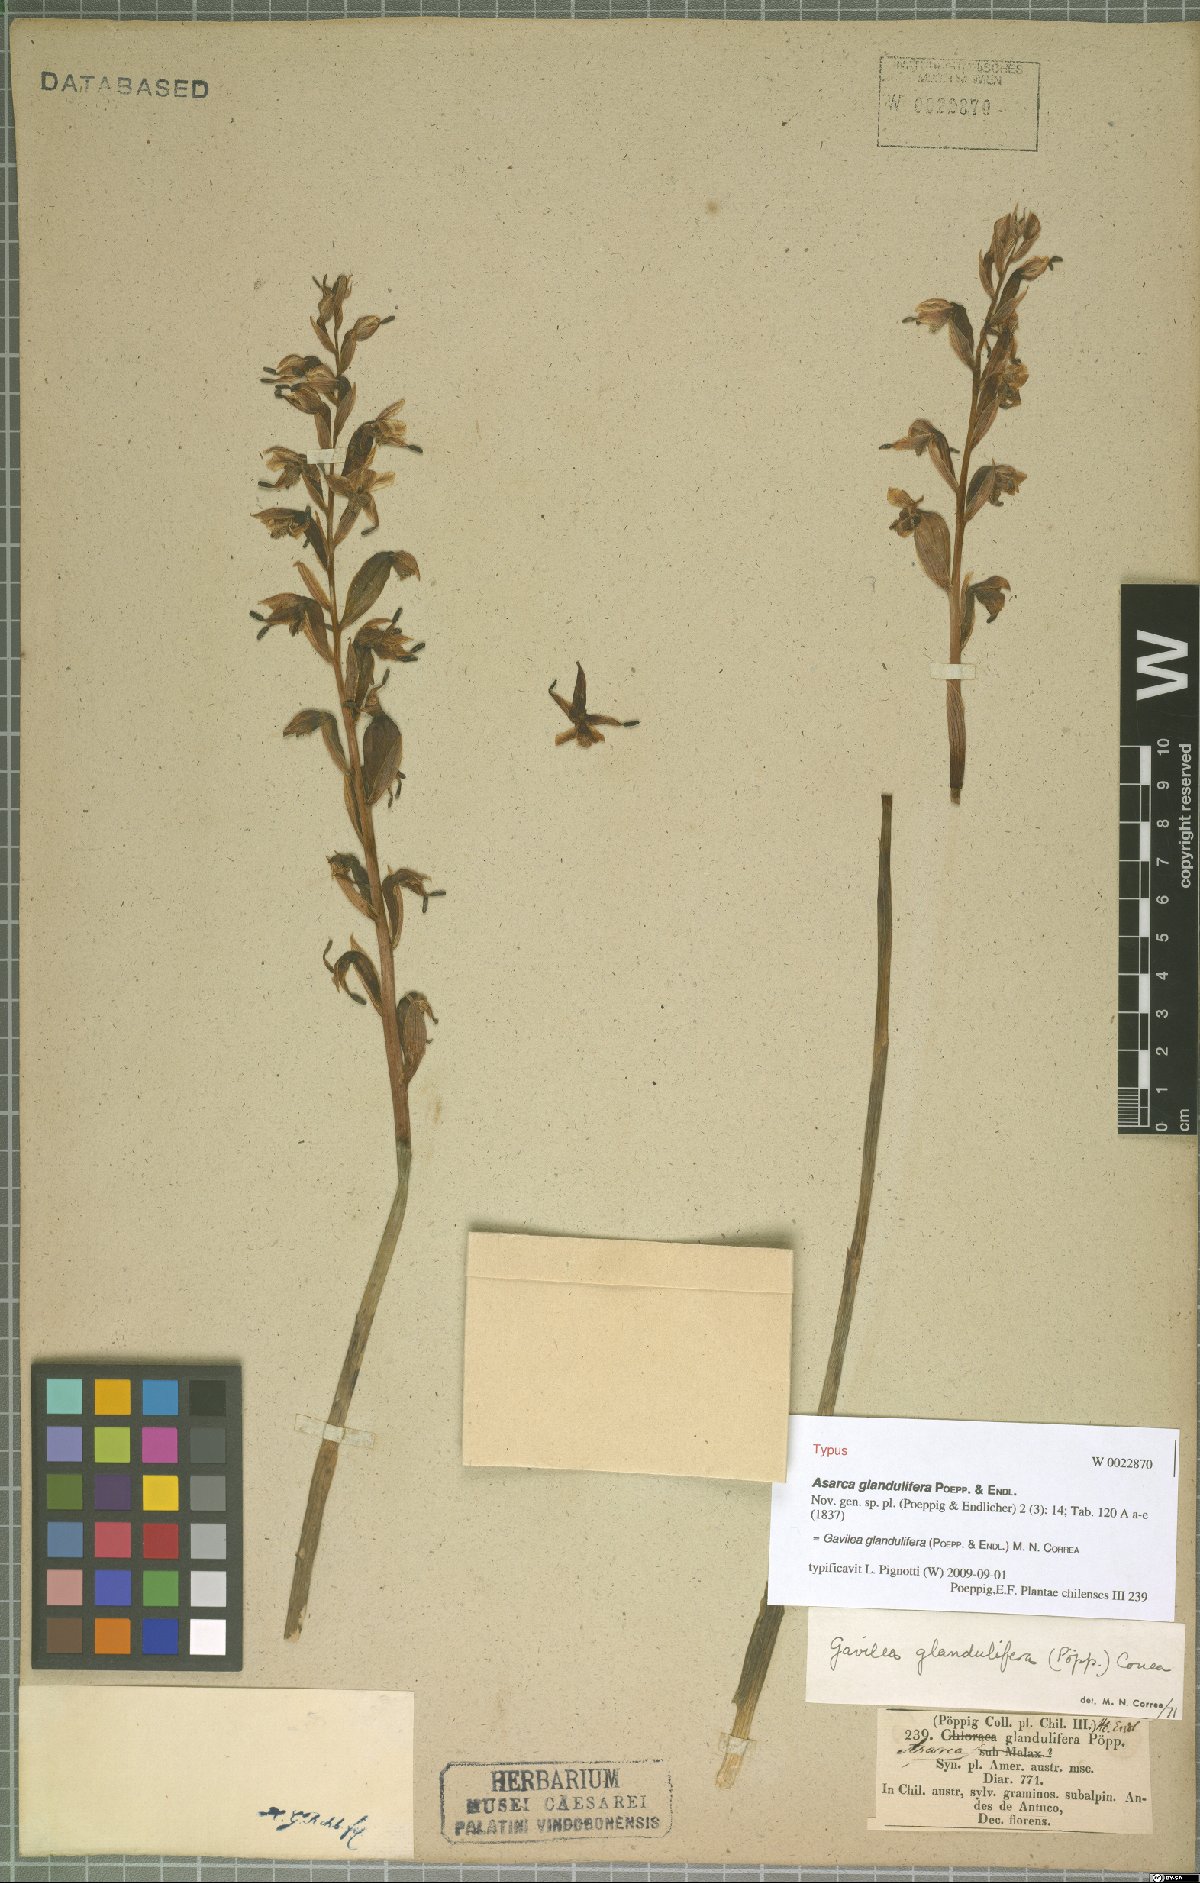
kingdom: Plantae
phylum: Tracheophyta
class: Liliopsida
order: Asparagales
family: Orchidaceae
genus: Gavilea
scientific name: Gavilea glandulifera
